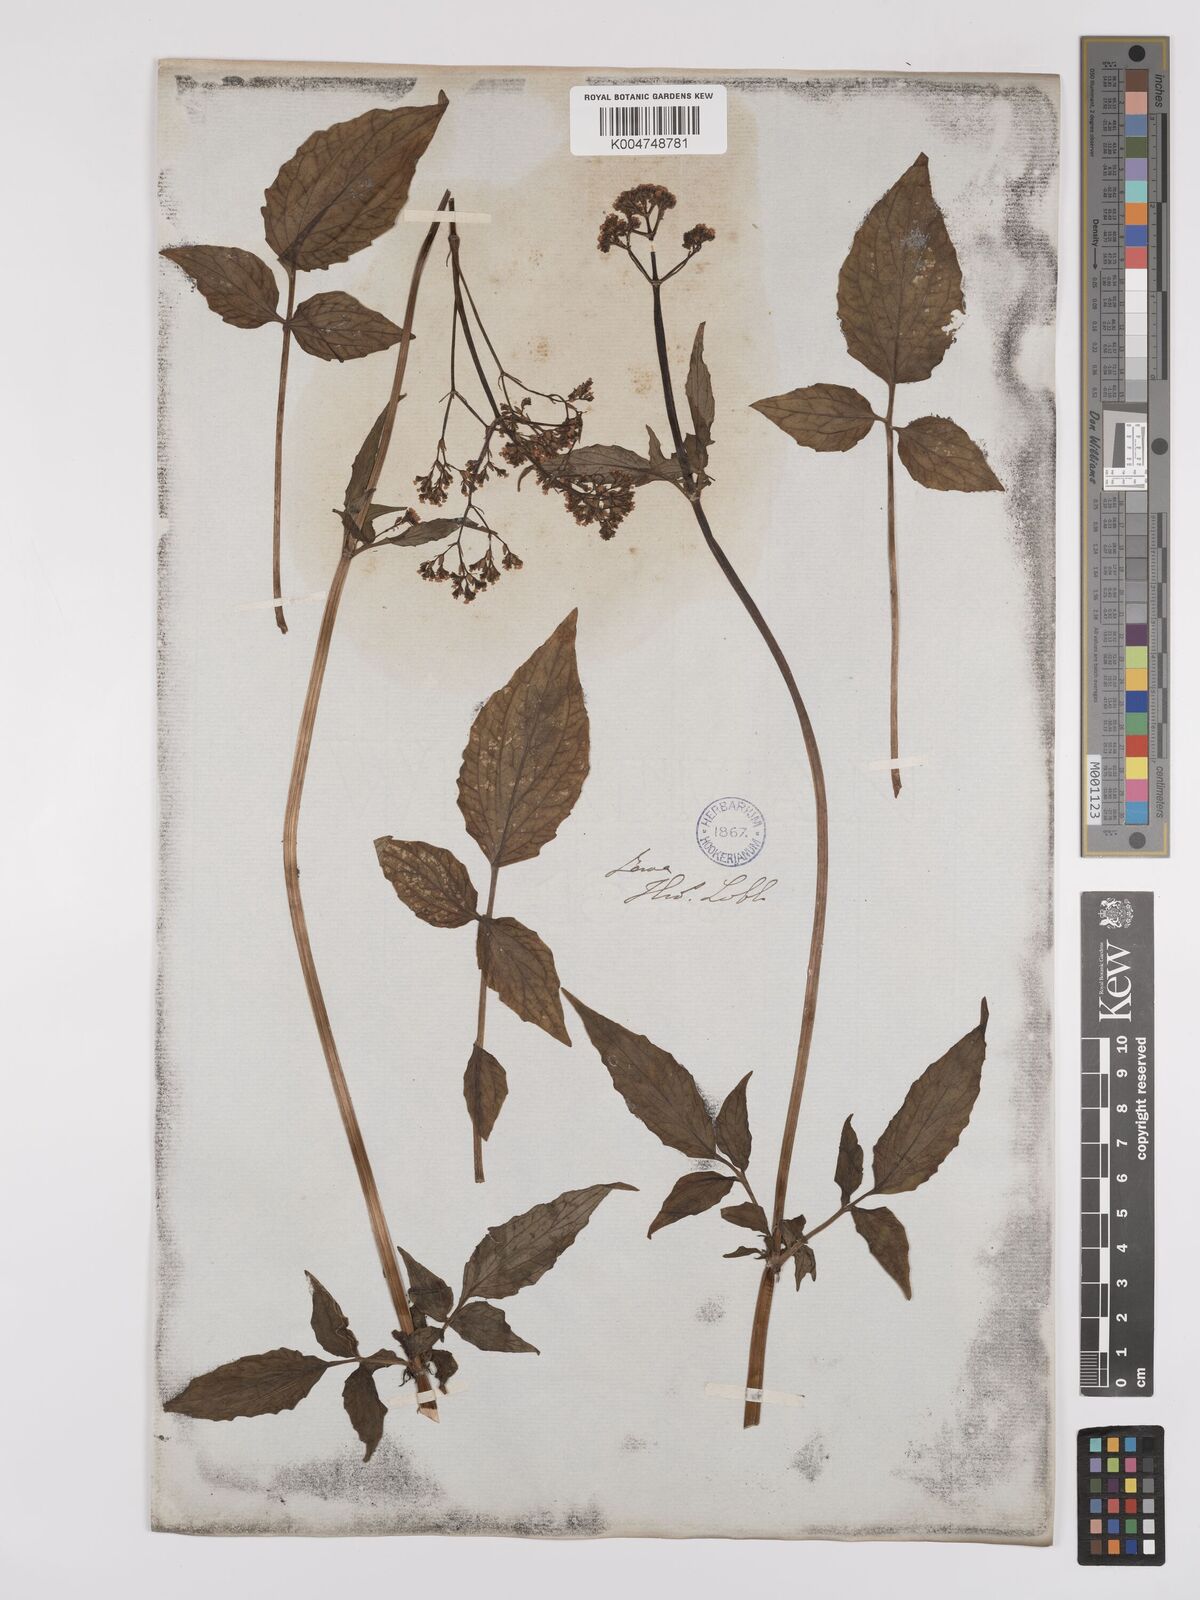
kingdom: Plantae
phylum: Tracheophyta
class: Magnoliopsida
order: Dipsacales
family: Caprifoliaceae
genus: Valeriana
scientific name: Valeriana hardwickei
